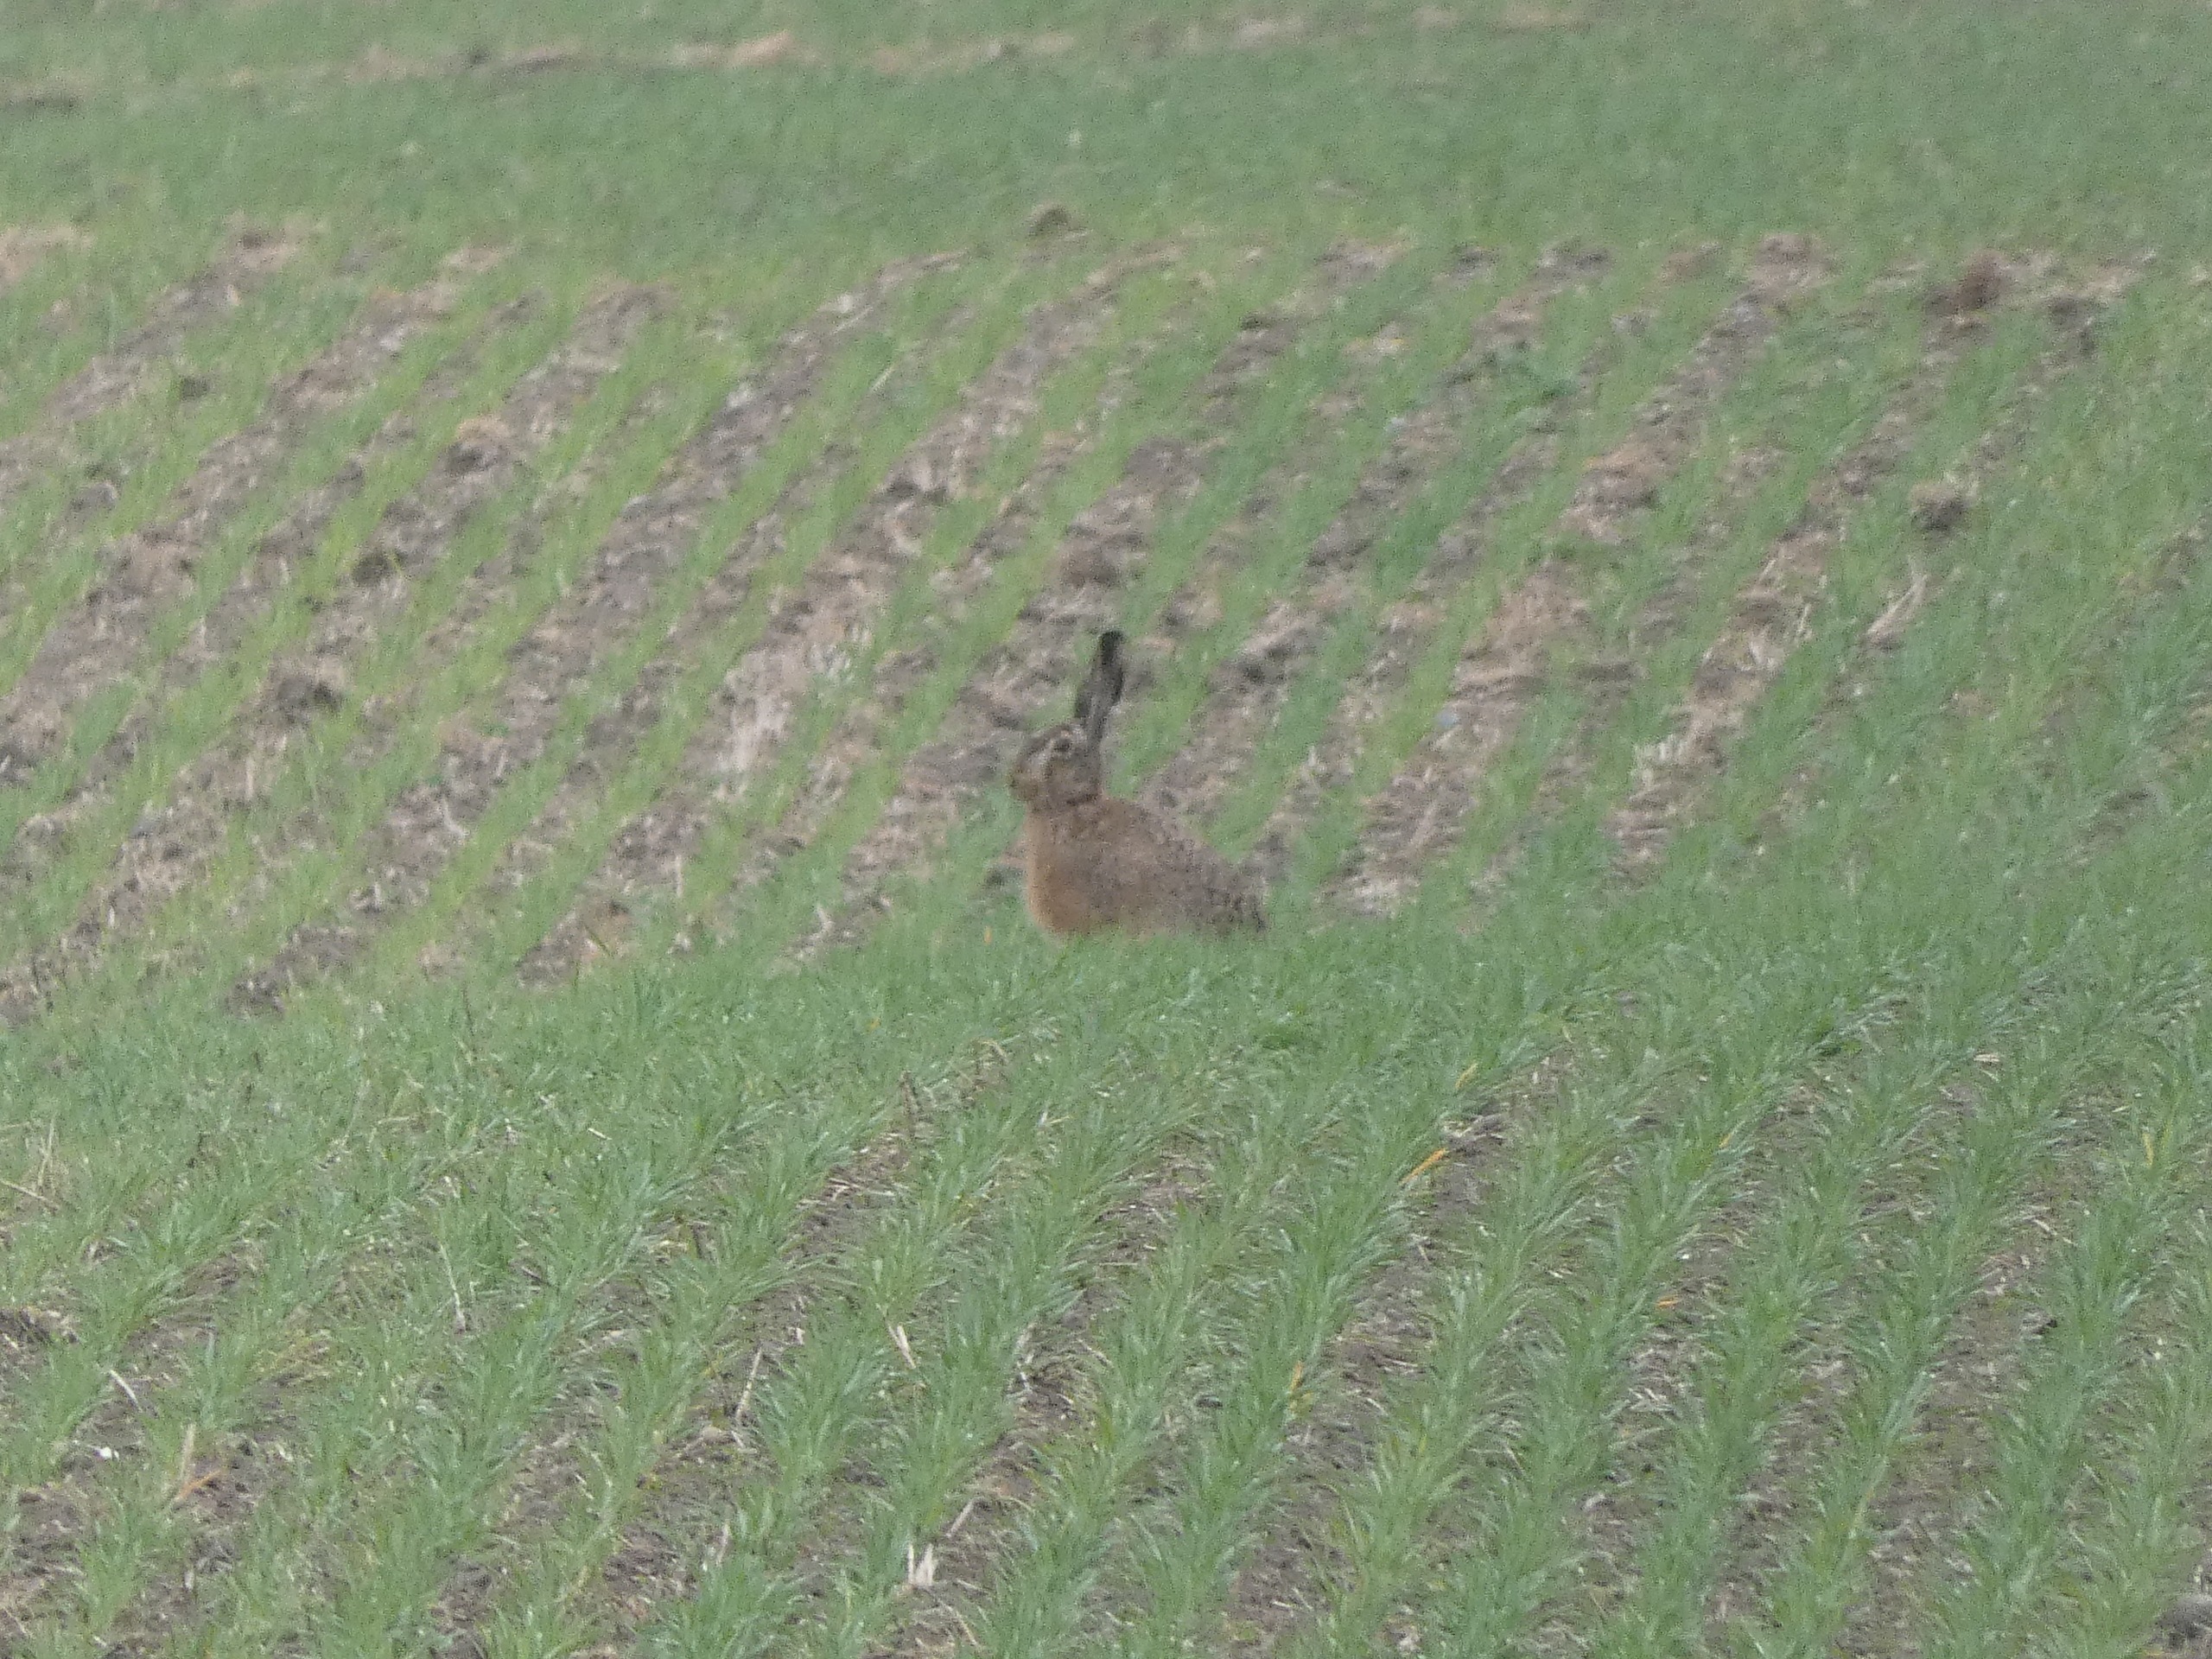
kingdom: Animalia
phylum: Chordata
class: Mammalia
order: Lagomorpha
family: Leporidae
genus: Lepus
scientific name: Lepus europaeus
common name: Hare
